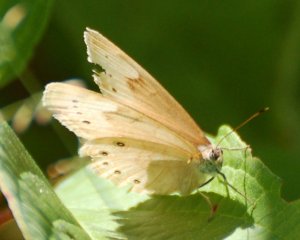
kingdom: Animalia
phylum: Arthropoda
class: Insecta
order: Lepidoptera
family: Nymphalidae
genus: Lethe
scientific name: Lethe eurydice
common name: Eyed Brown
